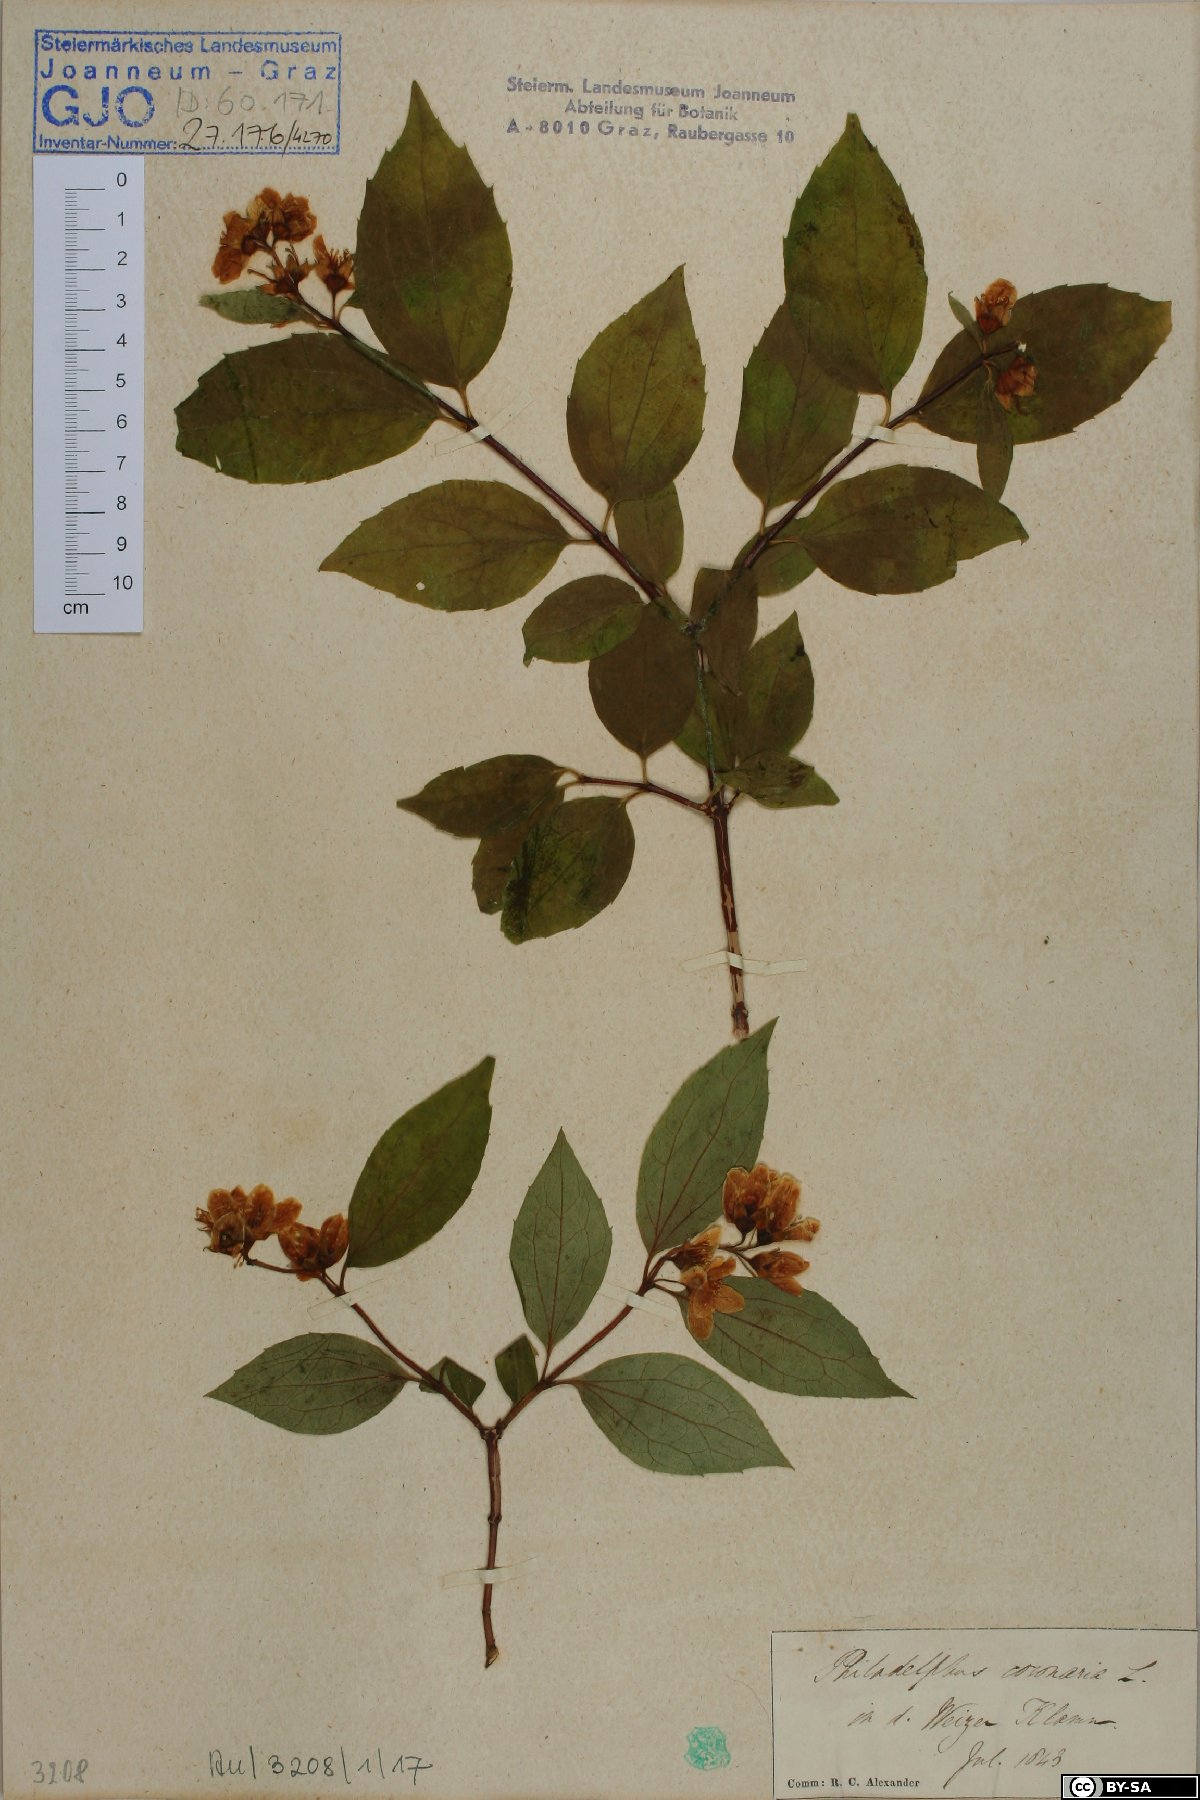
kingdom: Plantae
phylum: Tracheophyta
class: Magnoliopsida
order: Cornales
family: Hydrangeaceae
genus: Philadelphus
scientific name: Philadelphus coronarius
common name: Mock orange
